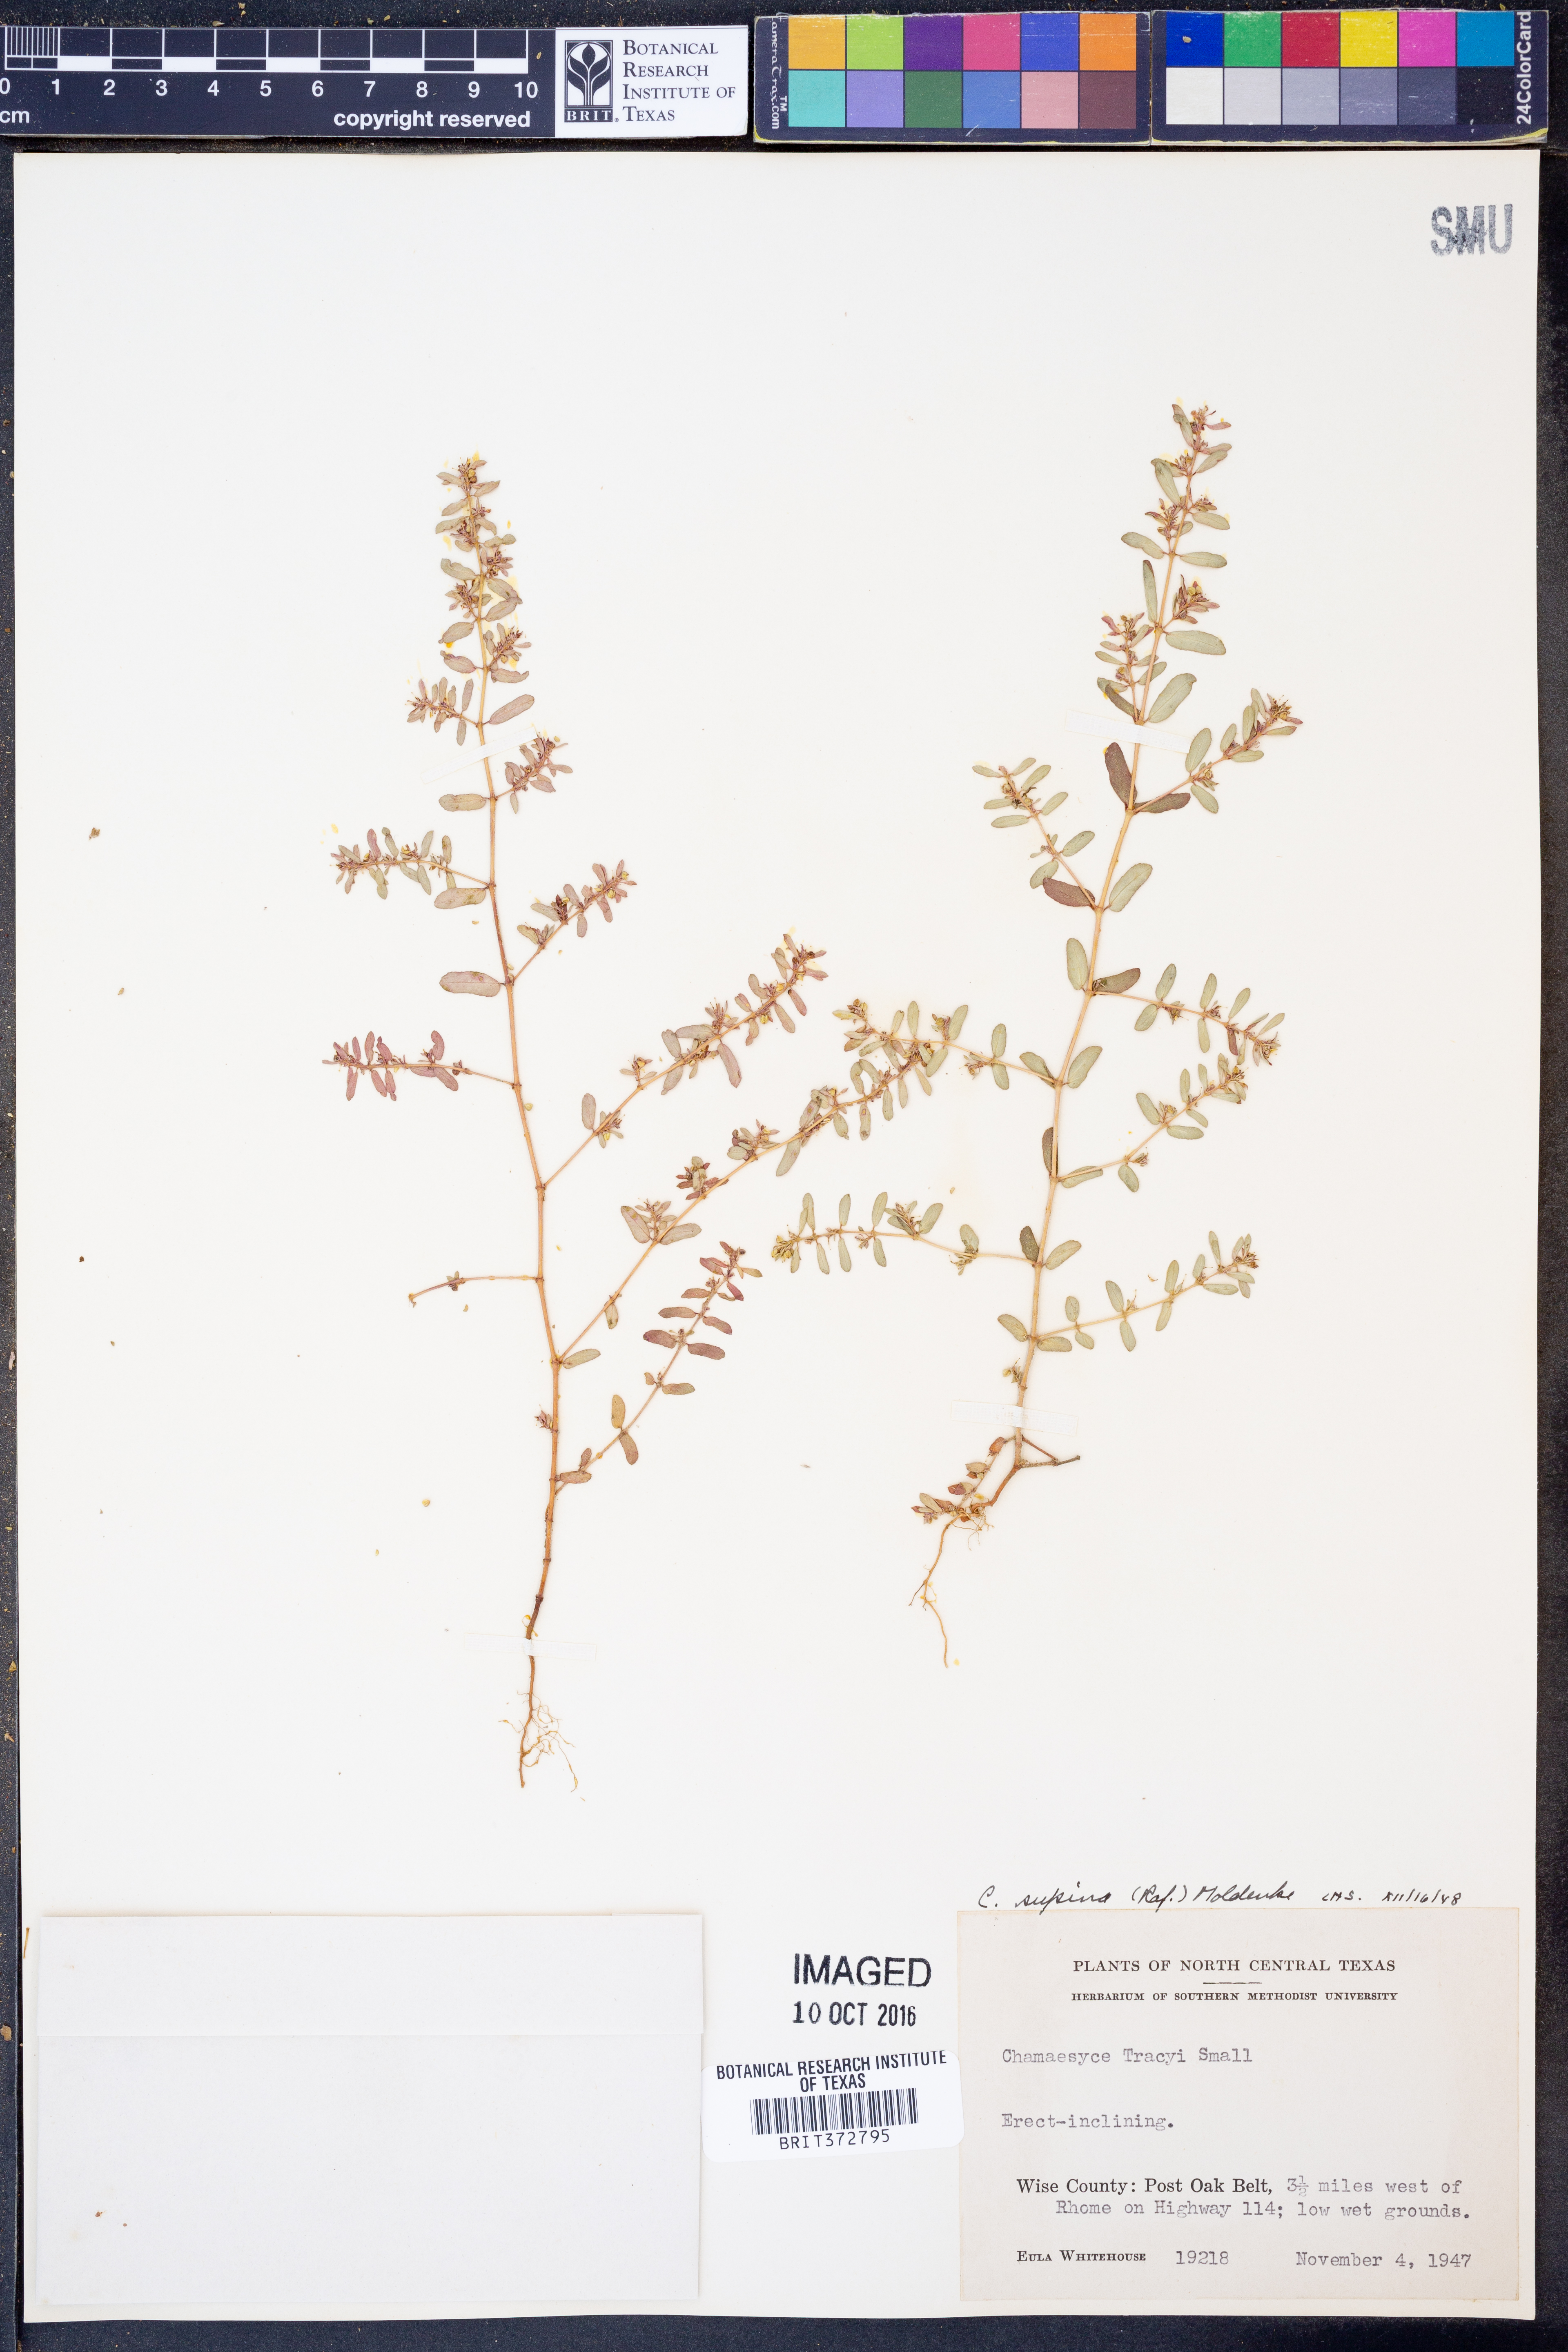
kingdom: Plantae
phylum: Tracheophyta
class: Magnoliopsida
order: Malpighiales
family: Euphorbiaceae
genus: Euphorbia
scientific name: Euphorbia maculata
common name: Spotted spurge
